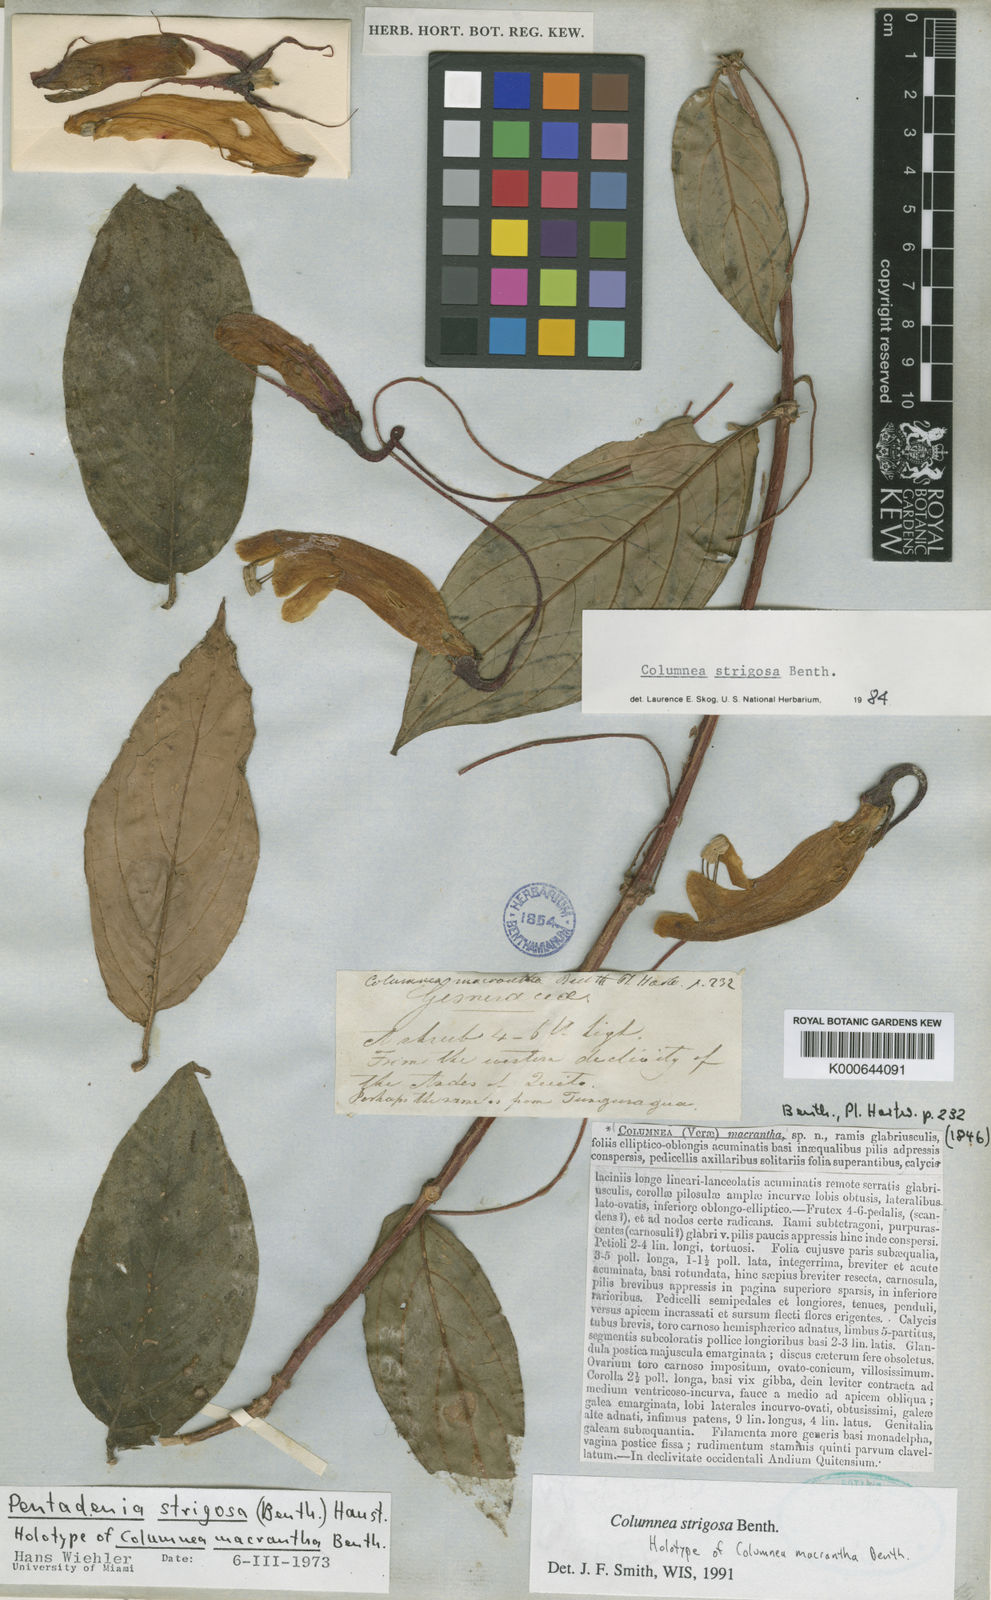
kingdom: Plantae
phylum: Tracheophyta
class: Magnoliopsida
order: Lamiales
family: Gesneriaceae
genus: Columnea
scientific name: Columnea strigosa
